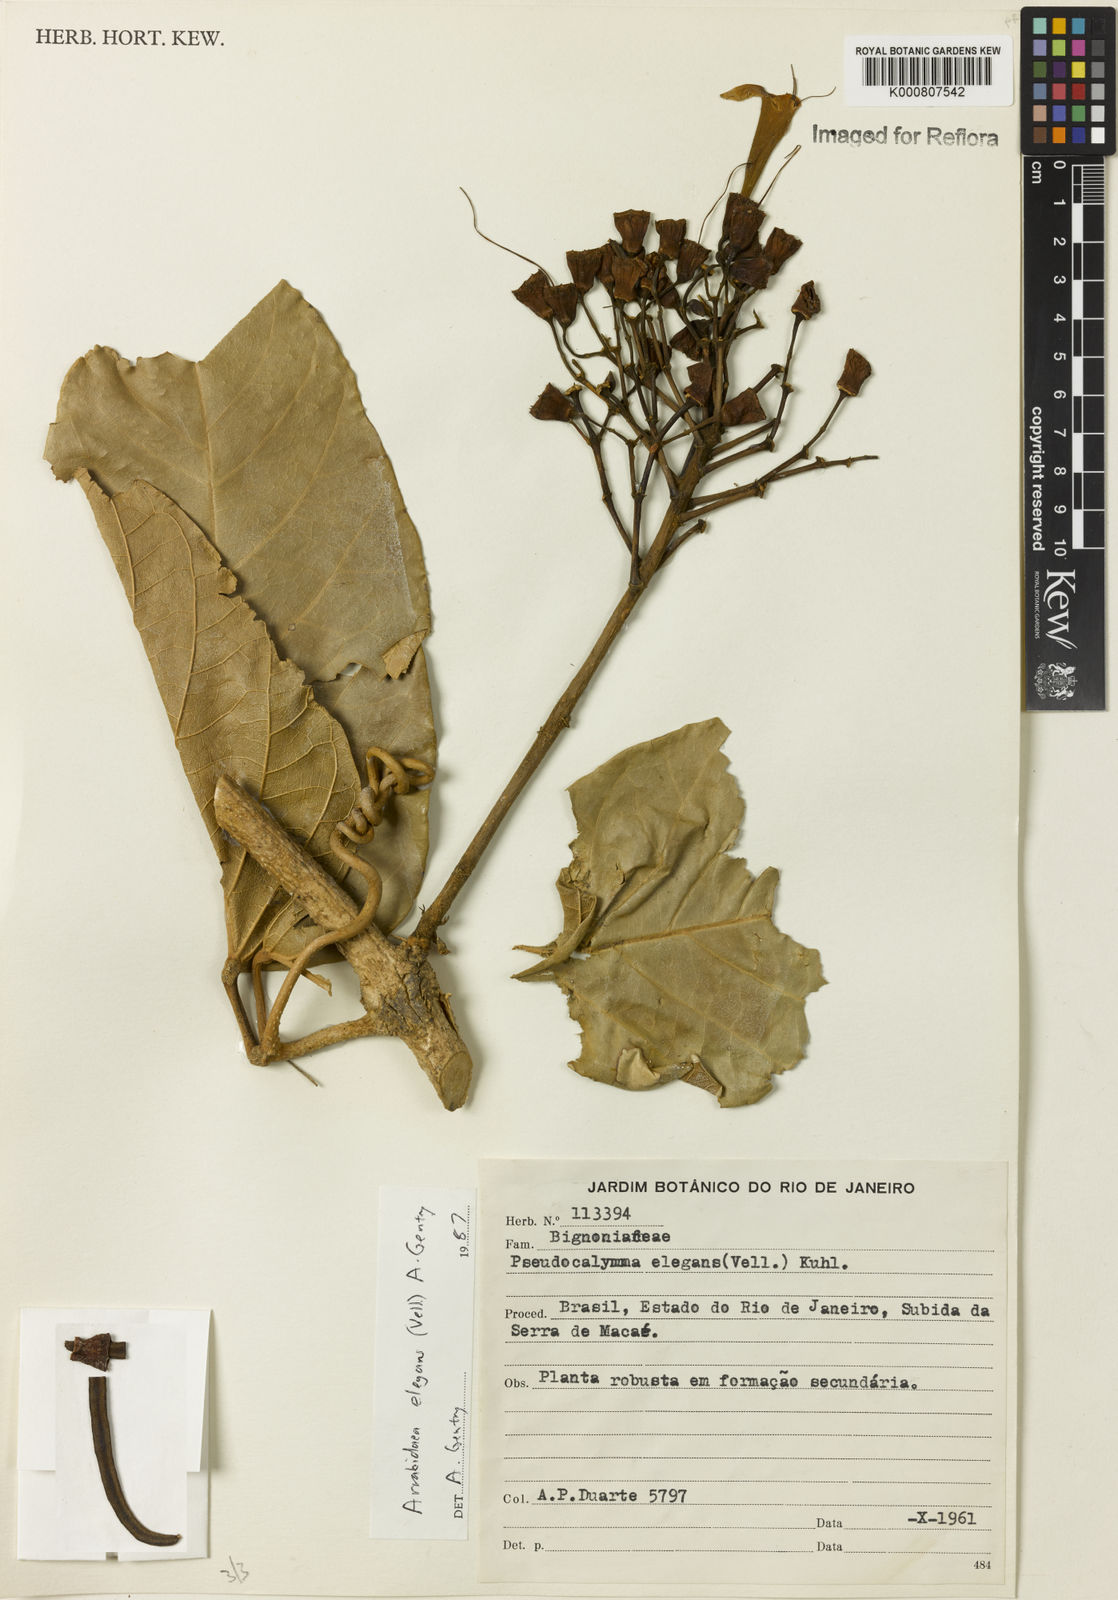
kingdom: Plantae
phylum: Tracheophyta
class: Magnoliopsida
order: Lamiales
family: Bignoniaceae
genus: Fridericia
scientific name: Fridericia elegans
